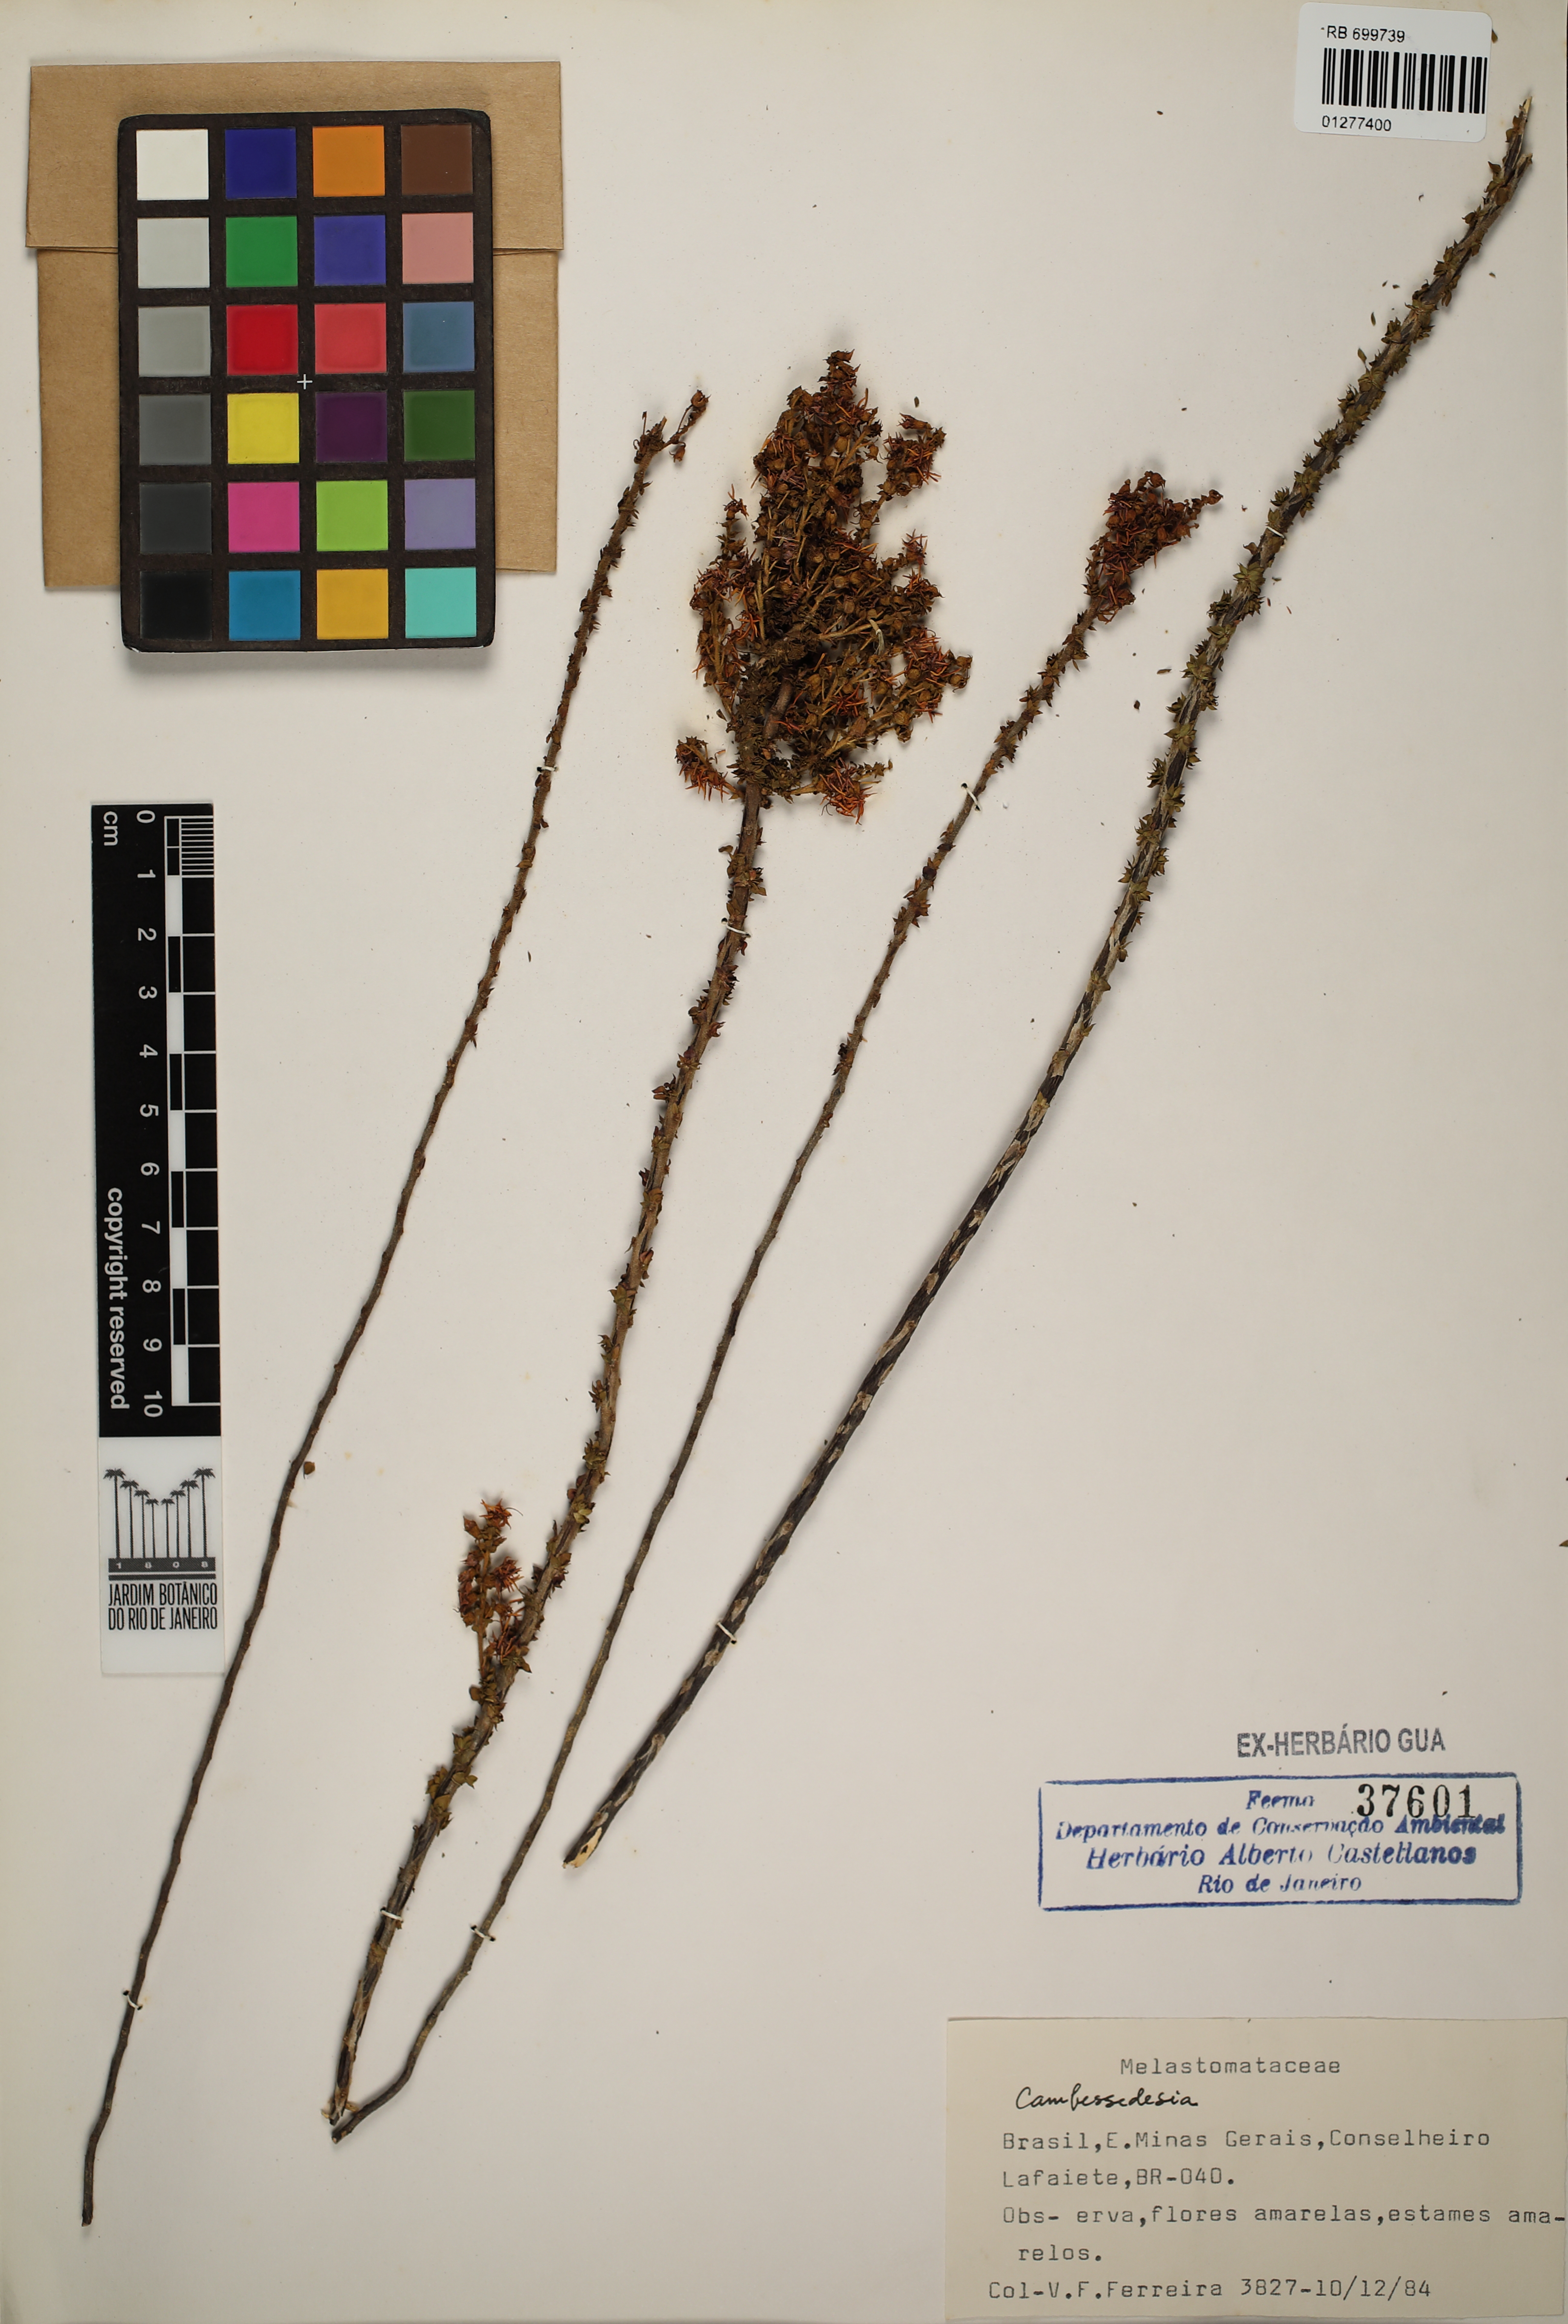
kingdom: Plantae
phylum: Tracheophyta
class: Magnoliopsida
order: Myrtales
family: Melastomataceae
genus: Cambessedesia
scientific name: Cambessedesia
